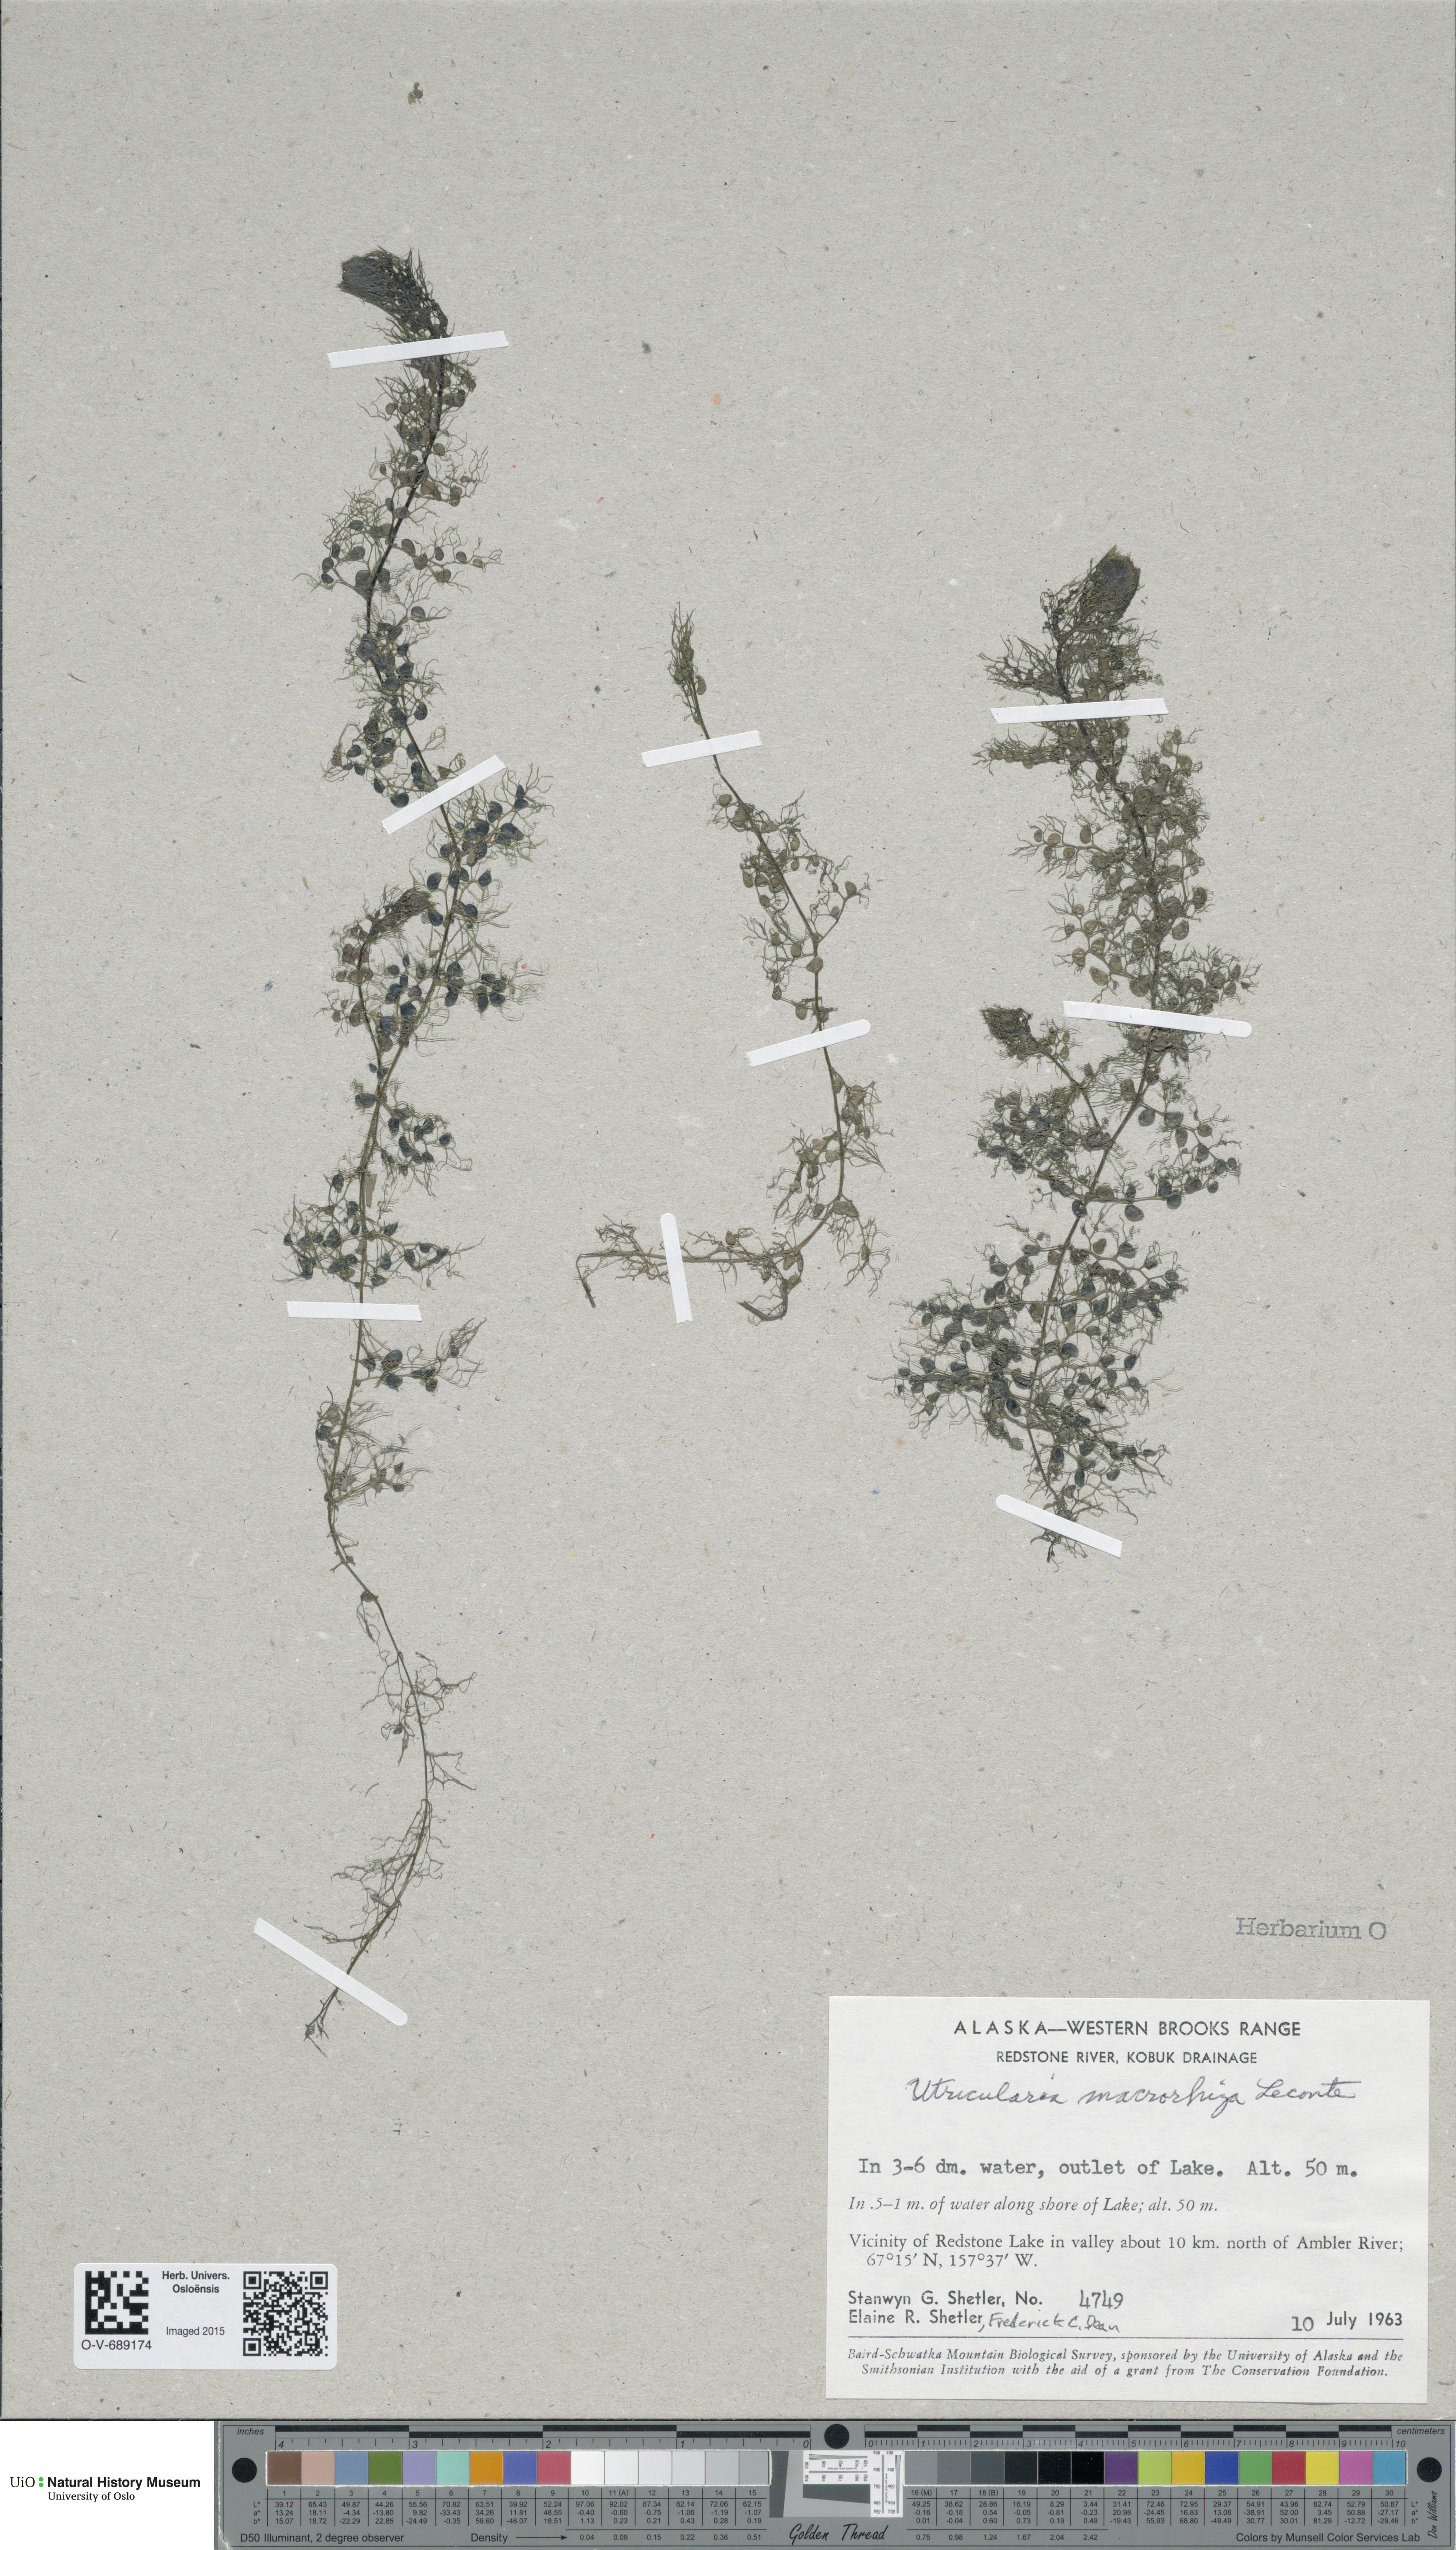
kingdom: Plantae
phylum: Tracheophyta
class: Magnoliopsida
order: Lamiales
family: Lentibulariaceae
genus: Utricularia
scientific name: Utricularia macrorhiza
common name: Common bladderwort
